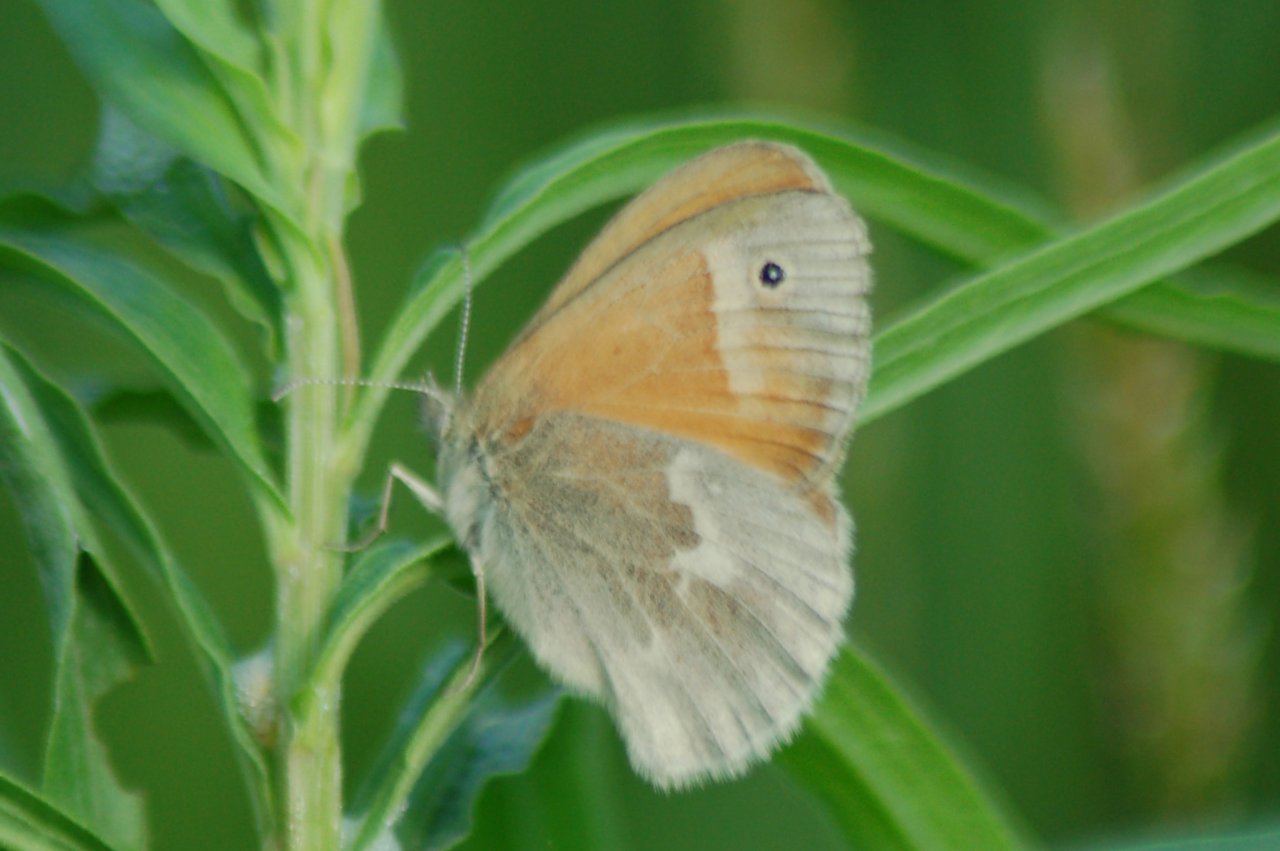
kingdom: Animalia
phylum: Arthropoda
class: Insecta
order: Lepidoptera
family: Nymphalidae
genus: Coenonympha
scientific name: Coenonympha tullia
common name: Large Heath
